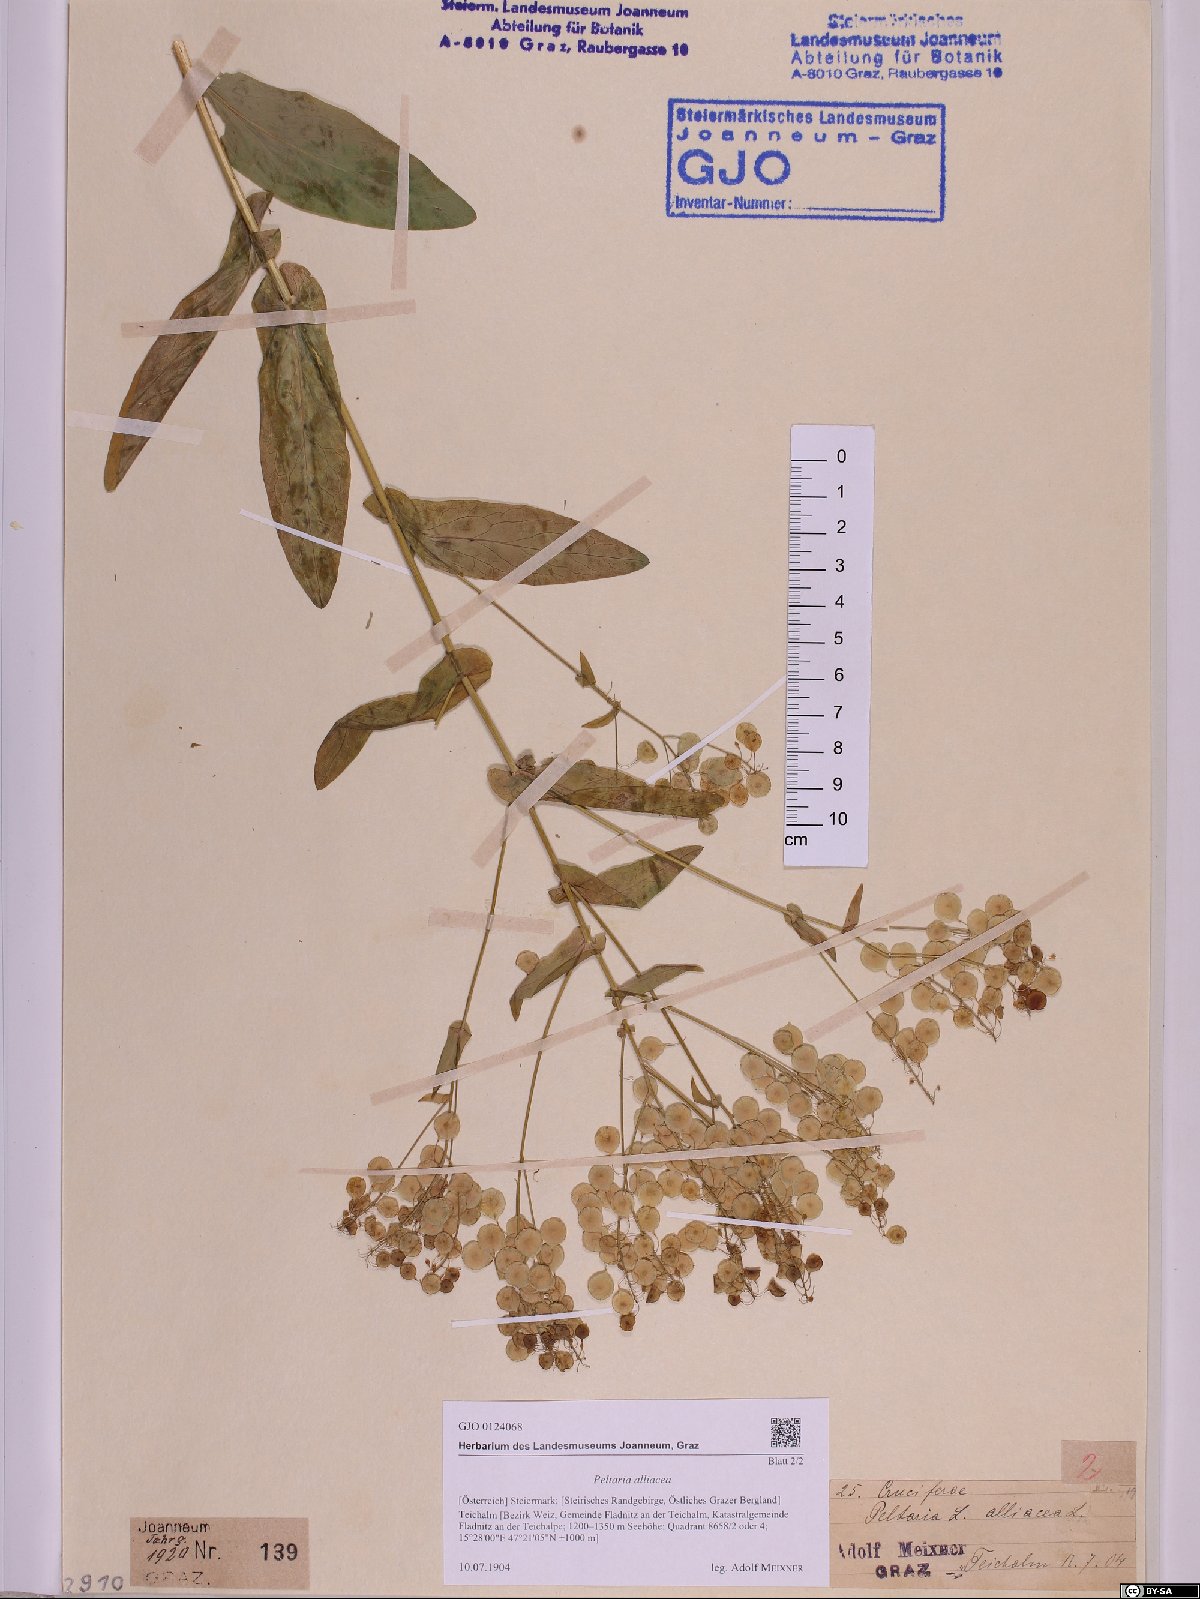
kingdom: Plantae
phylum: Tracheophyta
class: Magnoliopsida
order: Brassicales
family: Brassicaceae
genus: Peltaria
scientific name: Peltaria alliacea
